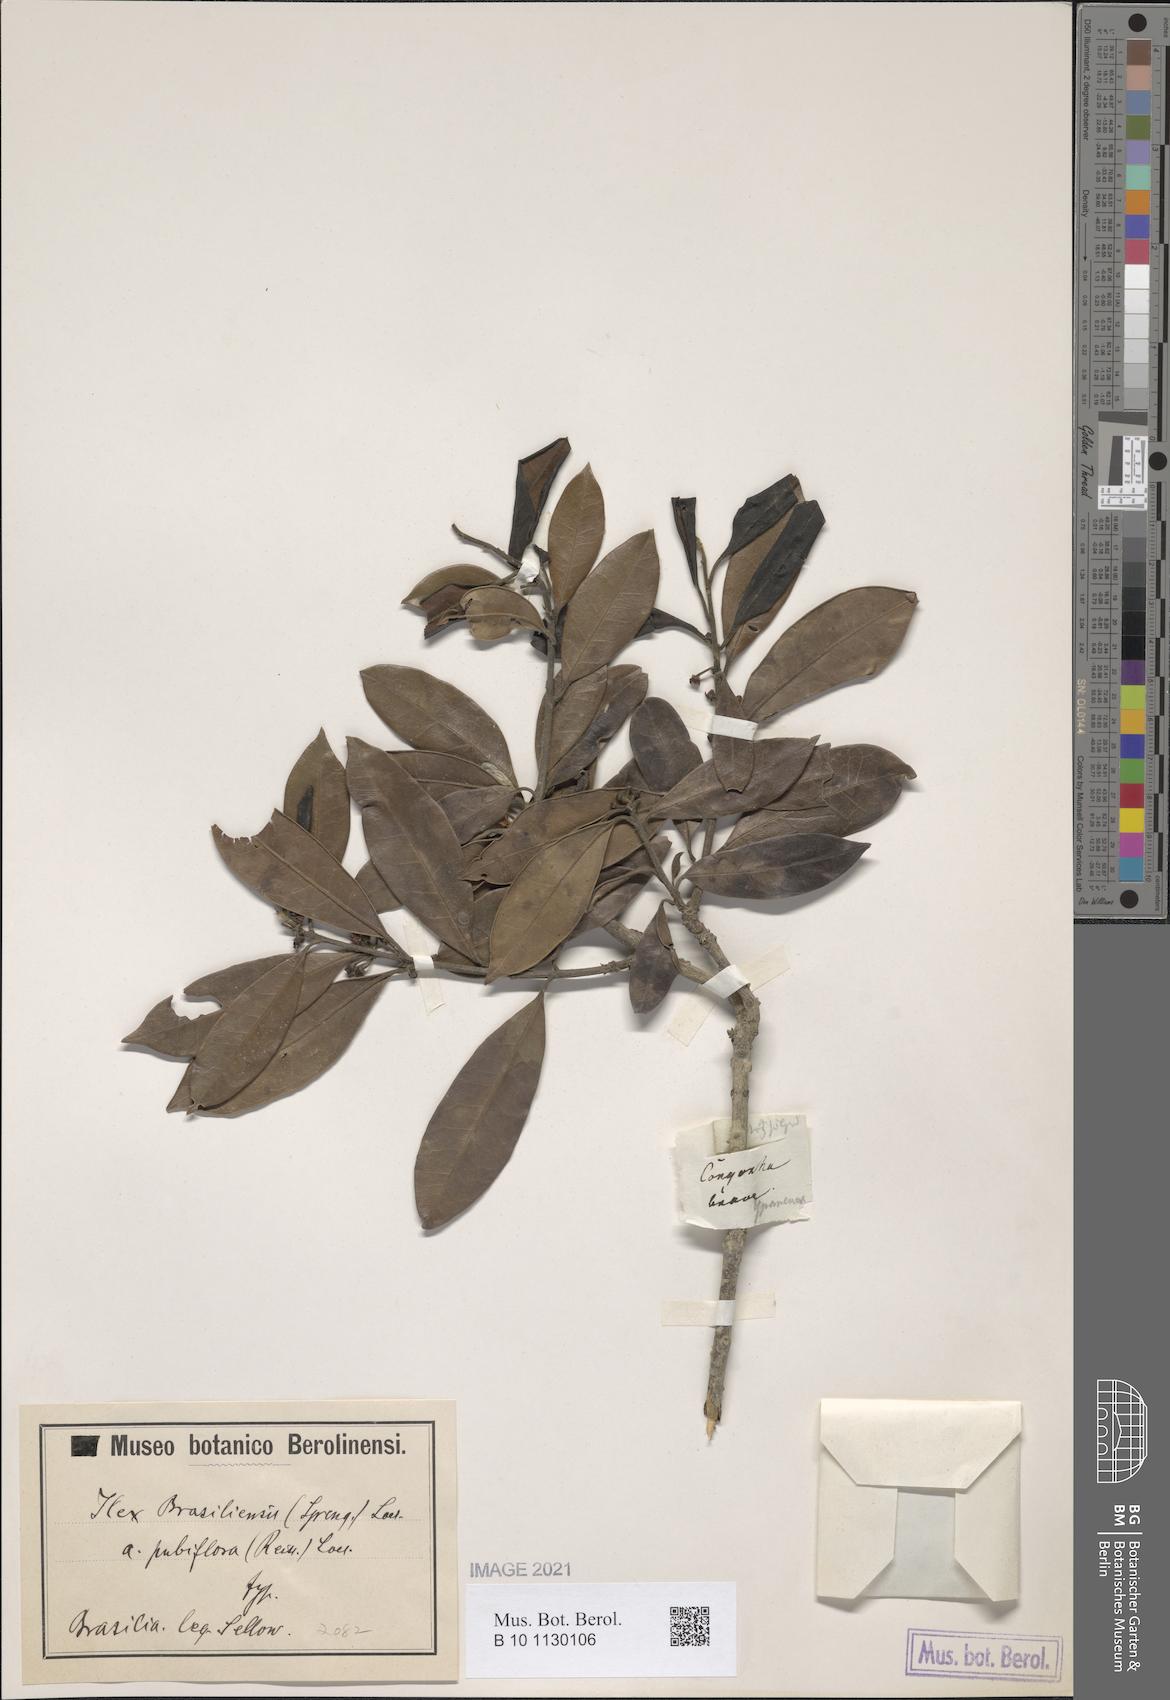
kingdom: Plantae
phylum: Tracheophyta
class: Magnoliopsida
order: Aquifoliales
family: Aquifoliaceae
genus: Ilex
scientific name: Ilex brasiliensis
